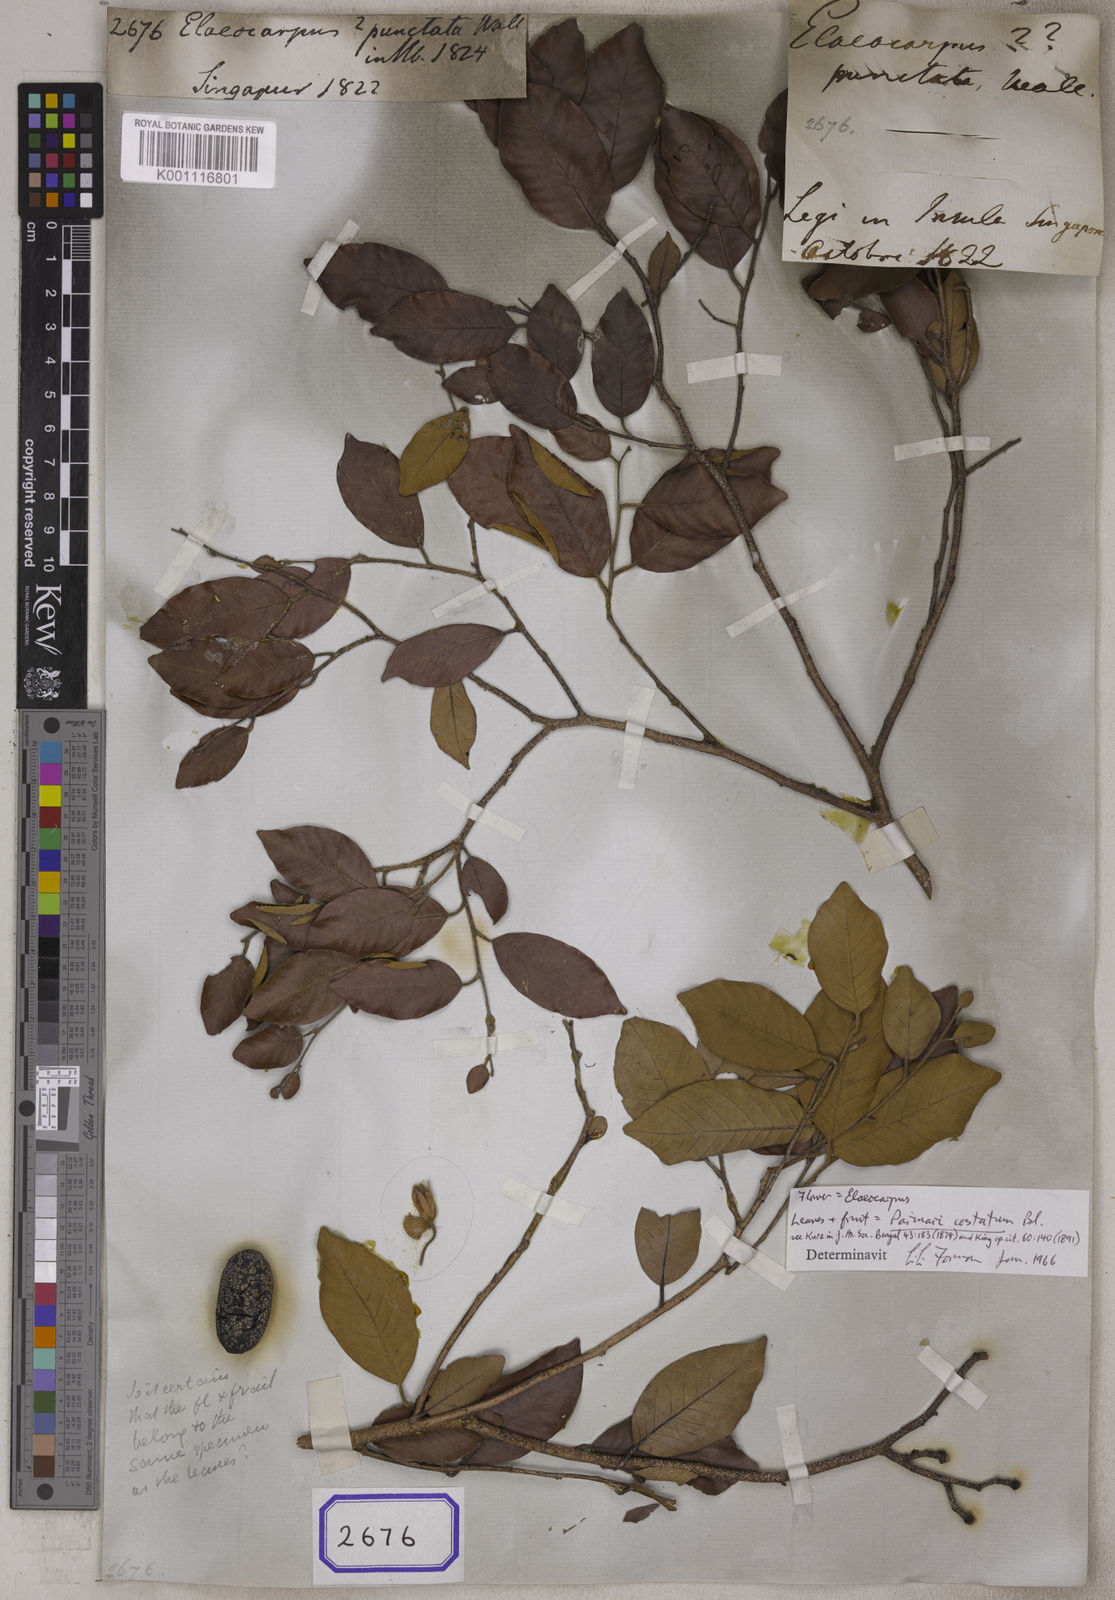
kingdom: Plantae
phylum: Tracheophyta
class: Magnoliopsida
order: Oxalidales
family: Elaeocarpaceae
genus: Elaeocarpus
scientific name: Elaeocarpus
